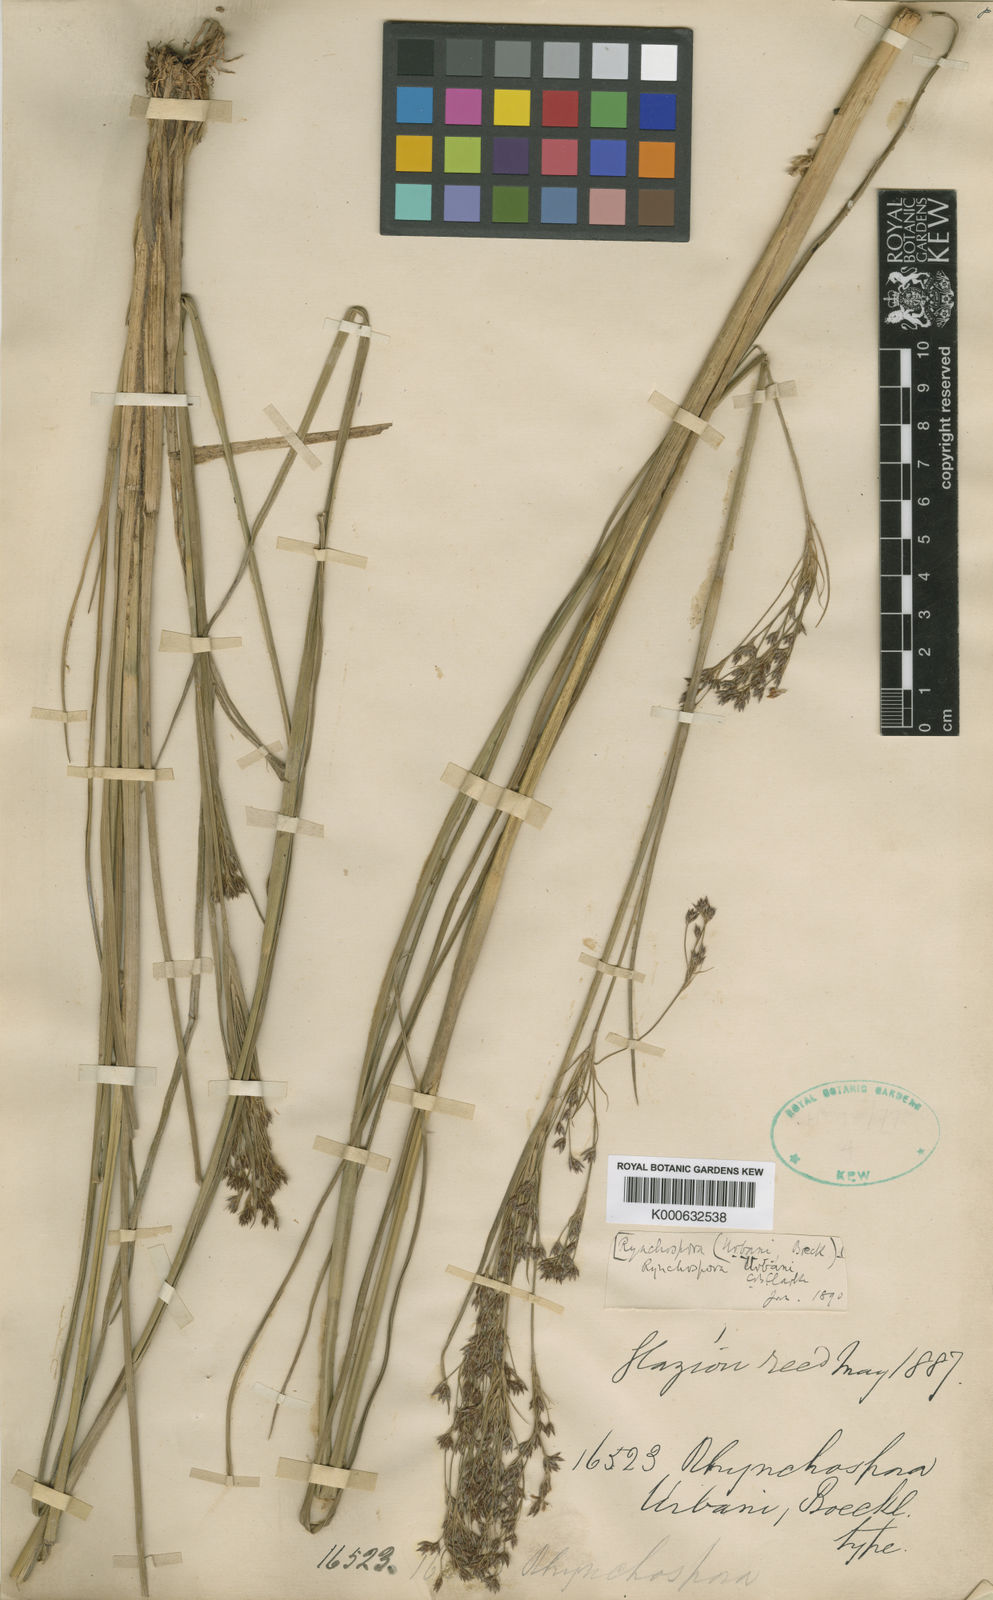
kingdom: Plantae
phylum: Tracheophyta
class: Liliopsida
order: Poales
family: Cyperaceae
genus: Rhynchospora
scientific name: Rhynchospora urbanii
